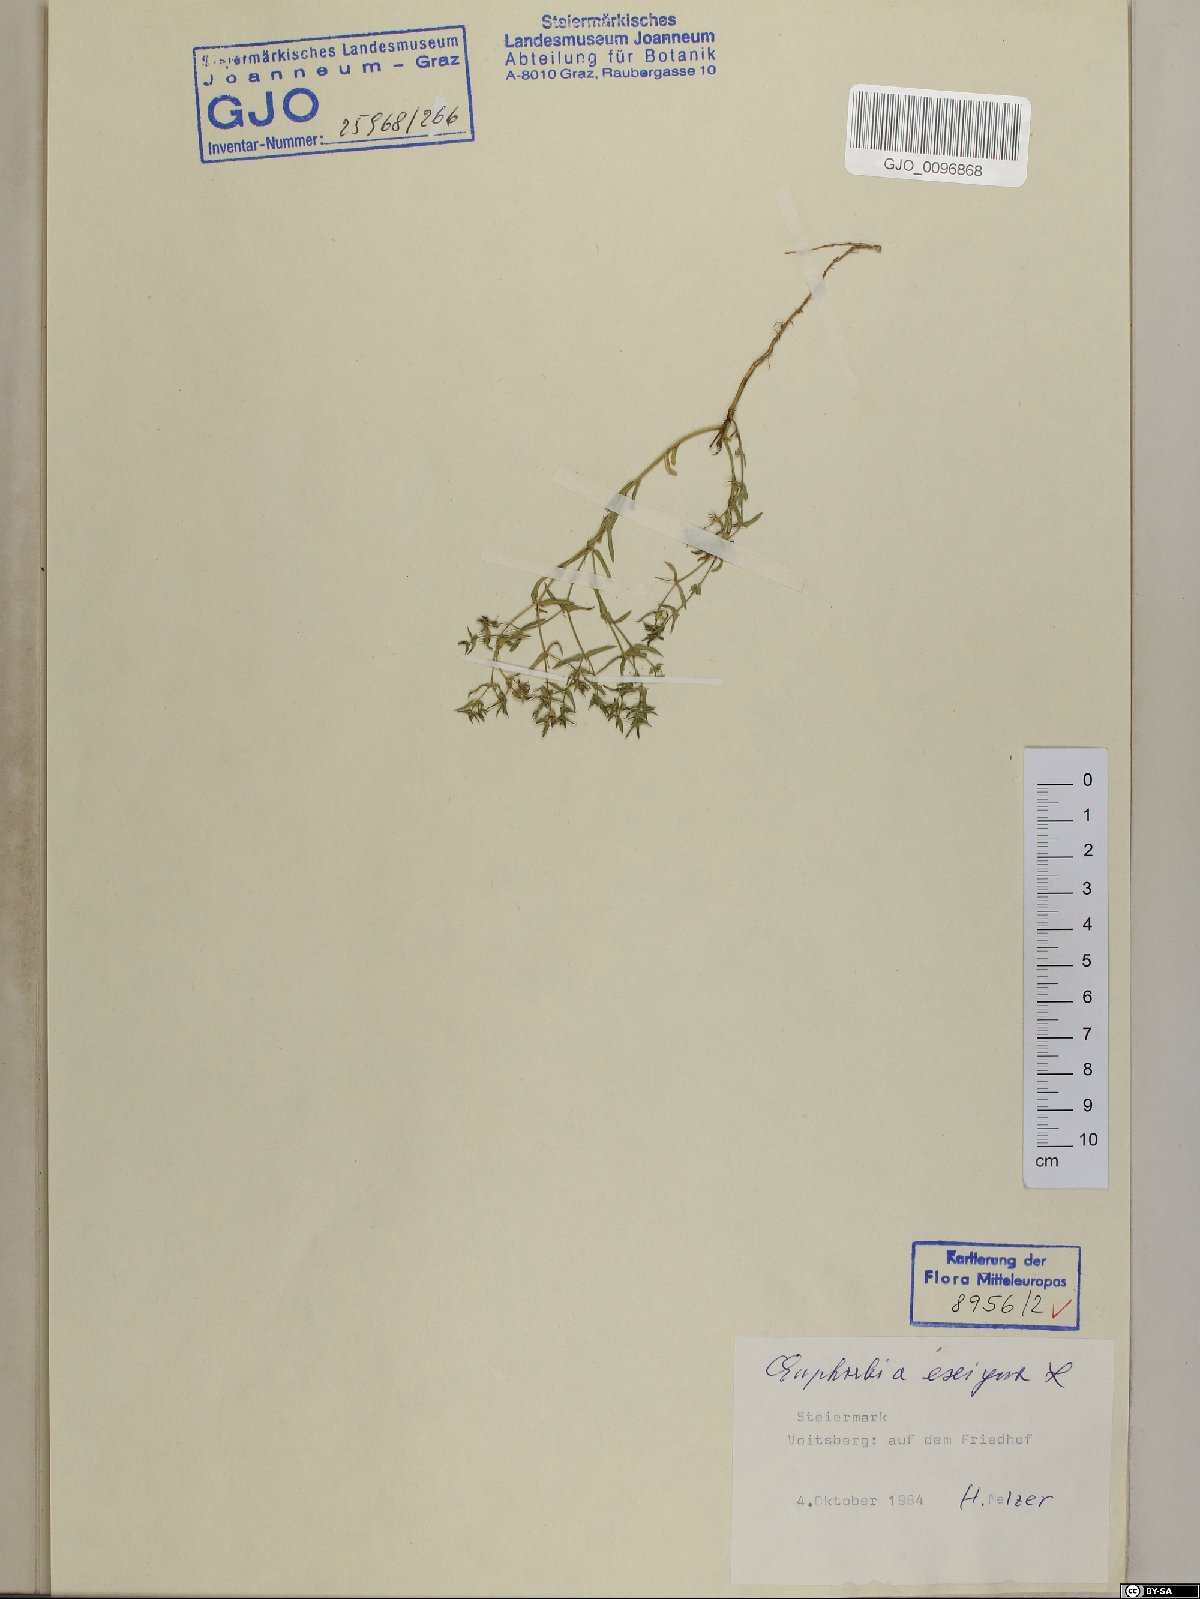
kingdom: Plantae
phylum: Tracheophyta
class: Magnoliopsida
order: Malpighiales
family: Euphorbiaceae
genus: Euphorbia
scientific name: Euphorbia exigua
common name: Dwarf spurge
